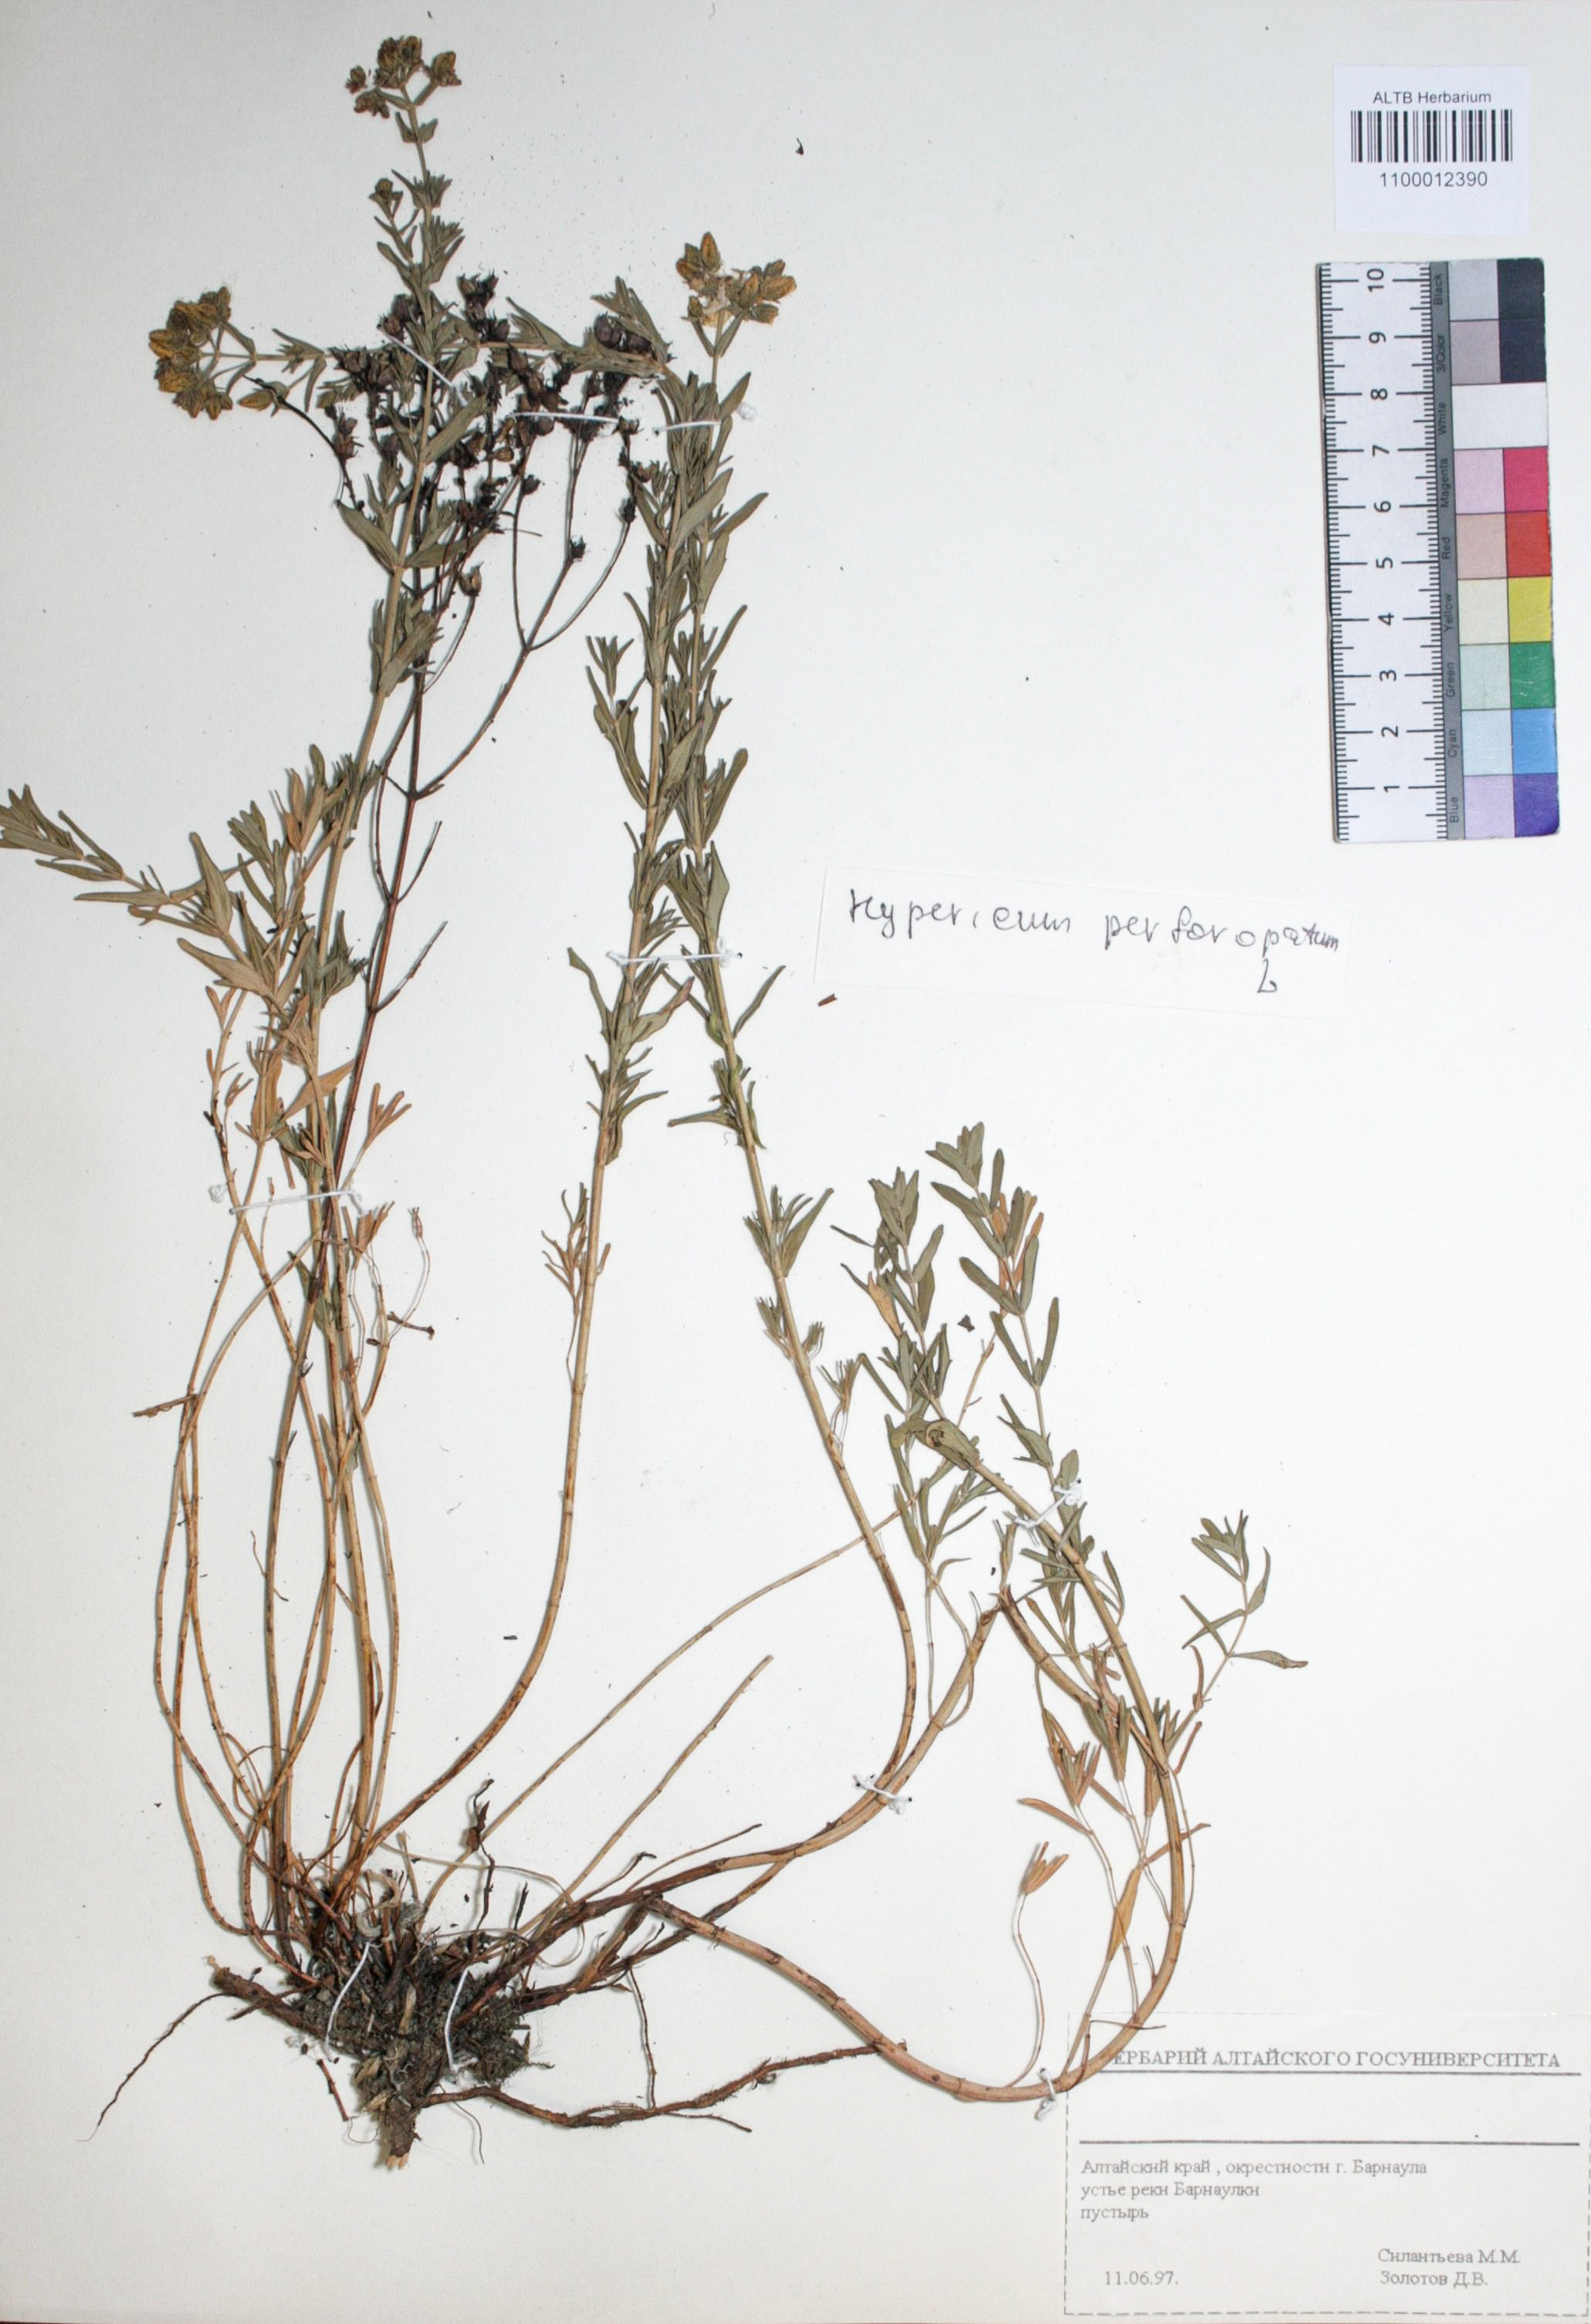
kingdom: Plantae
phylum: Tracheophyta
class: Magnoliopsida
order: Malpighiales
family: Hypericaceae
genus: Hypericum
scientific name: Hypericum perforatum
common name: Common st. johnswort
